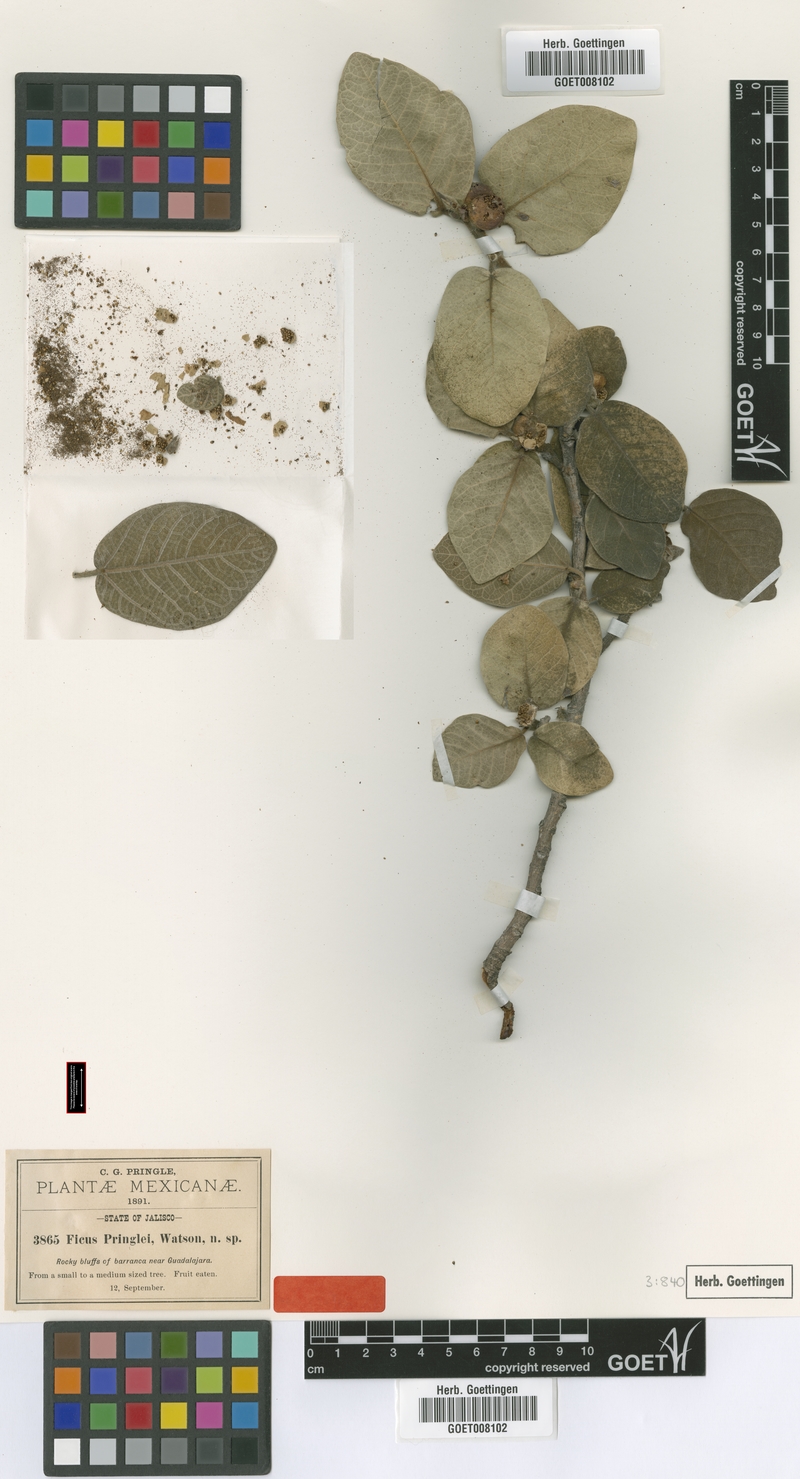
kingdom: Plantae
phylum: Tracheophyta
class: Magnoliopsida
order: Rosales
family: Moraceae
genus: Ficus
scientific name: Ficus pringlei
